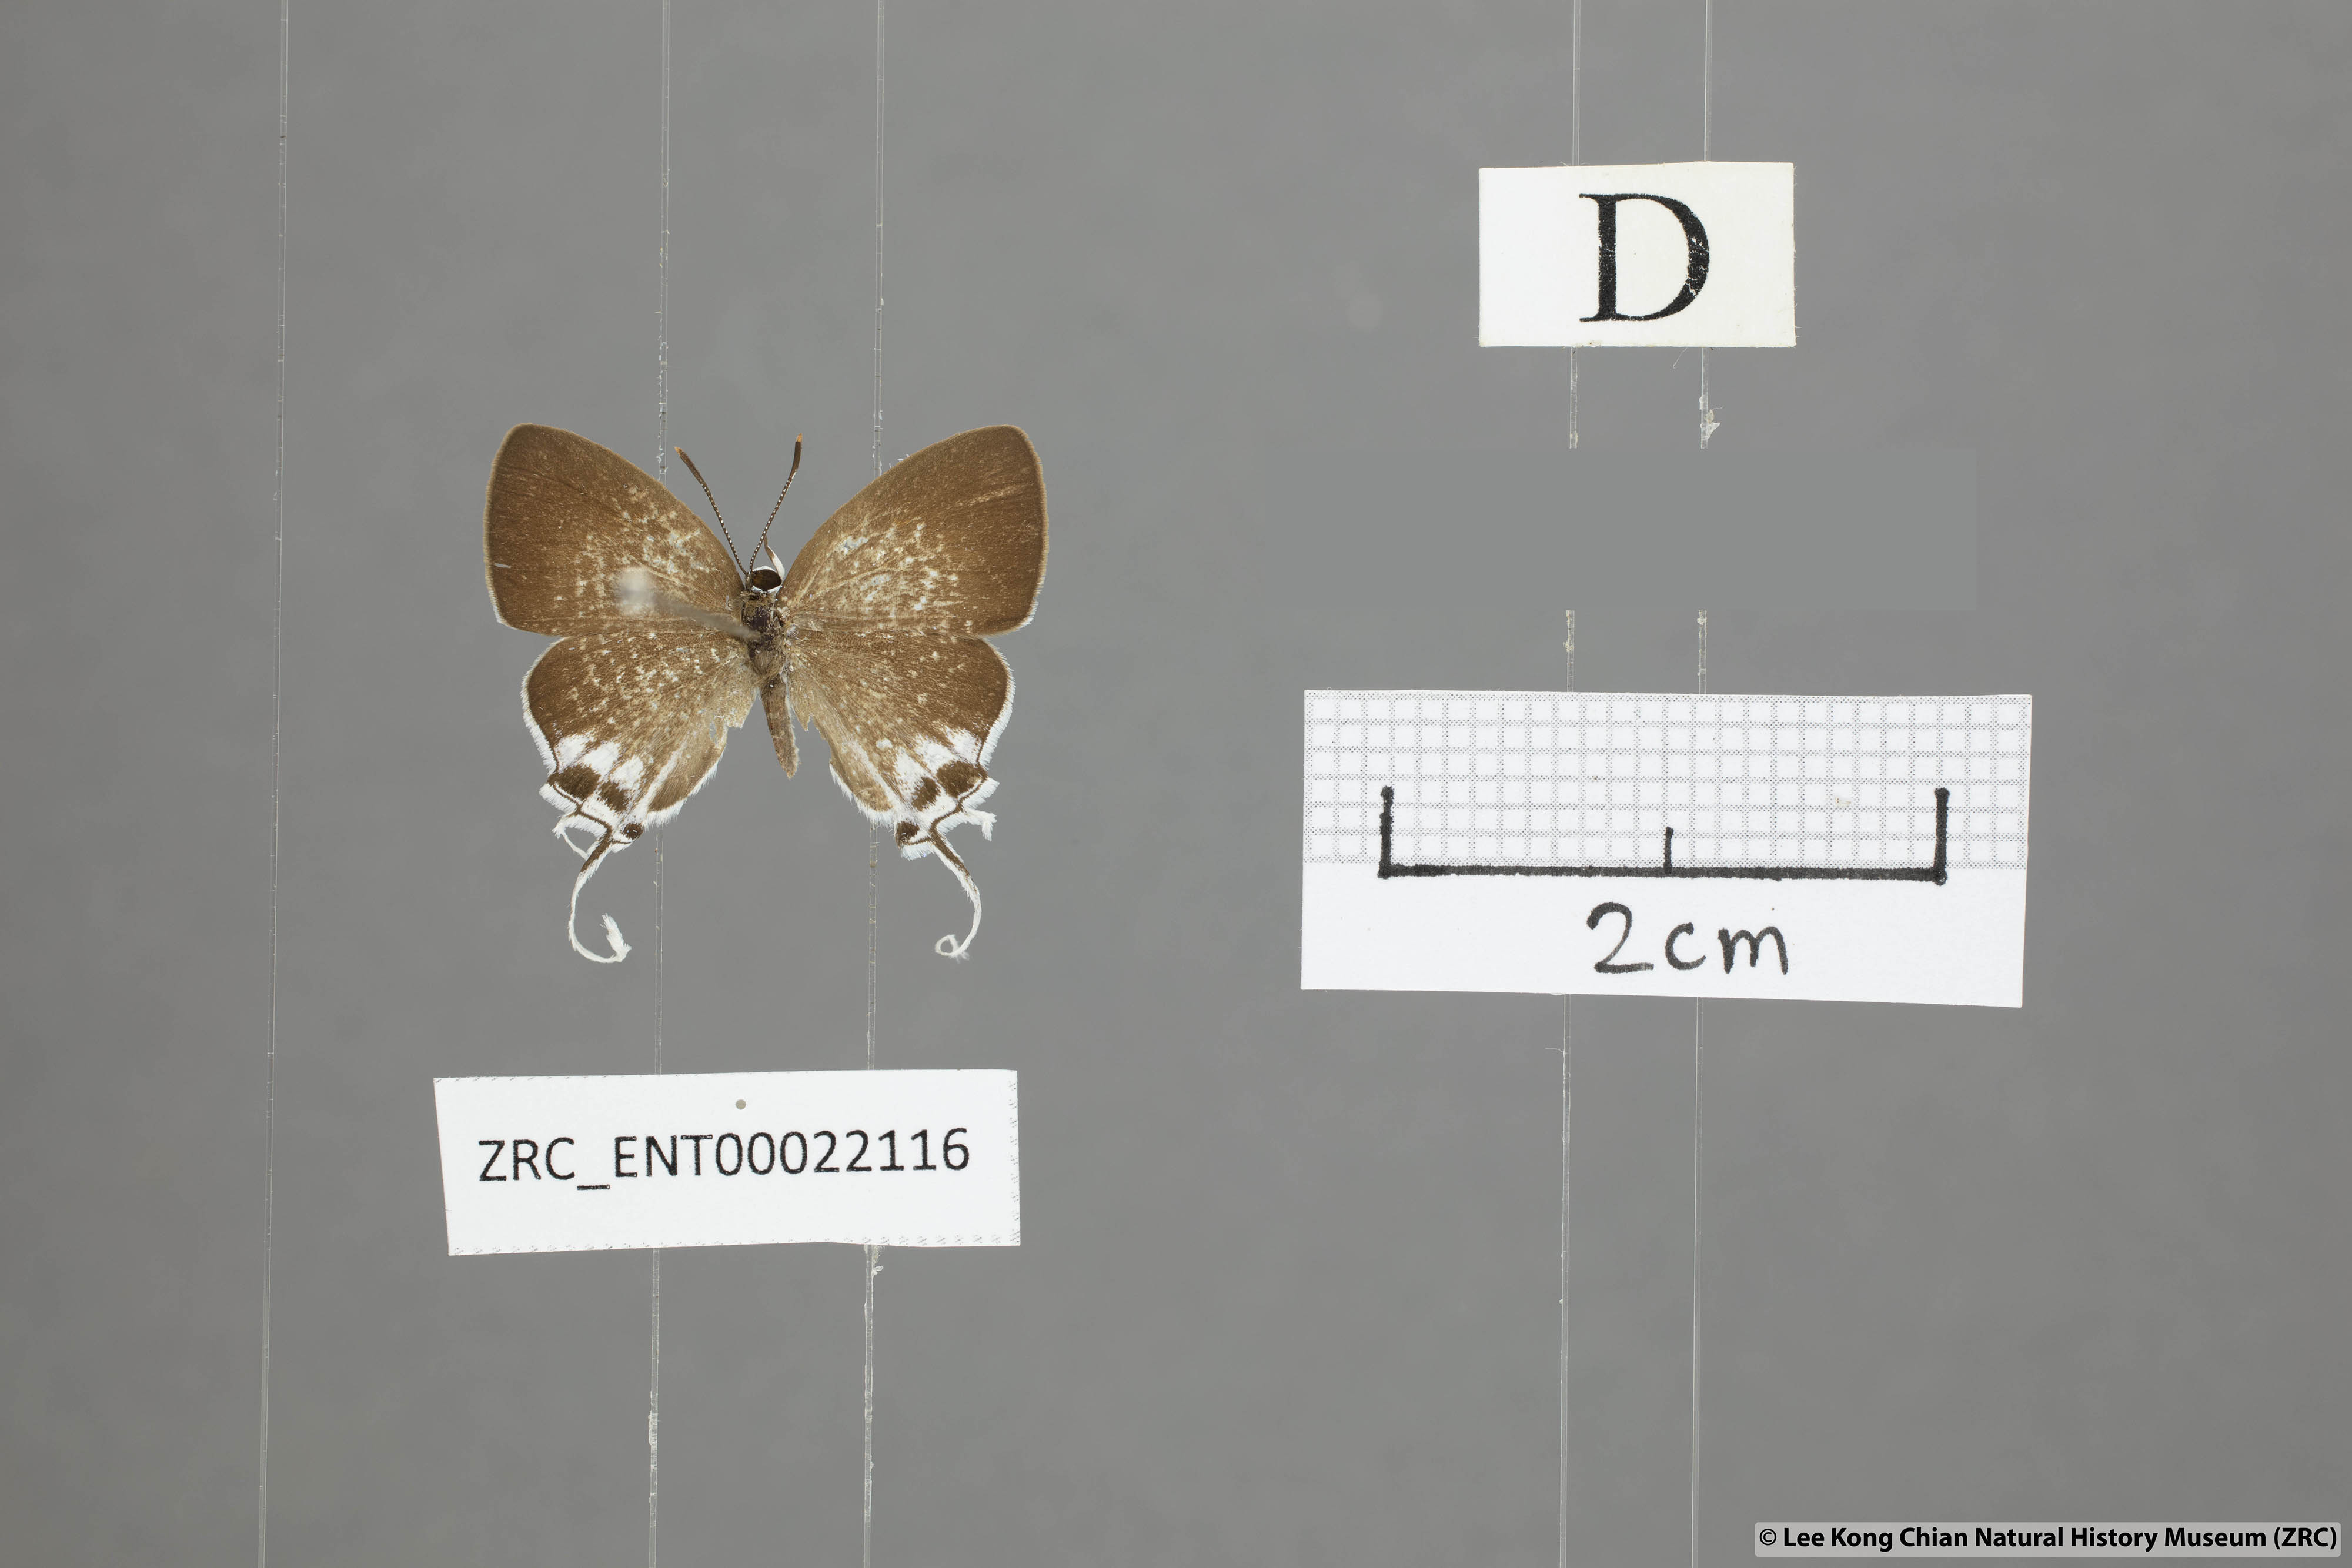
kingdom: Animalia
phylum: Arthropoda
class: Insecta
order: Lepidoptera
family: Lycaenidae
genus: Suasa
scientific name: Suasa lisides
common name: Red imperial
